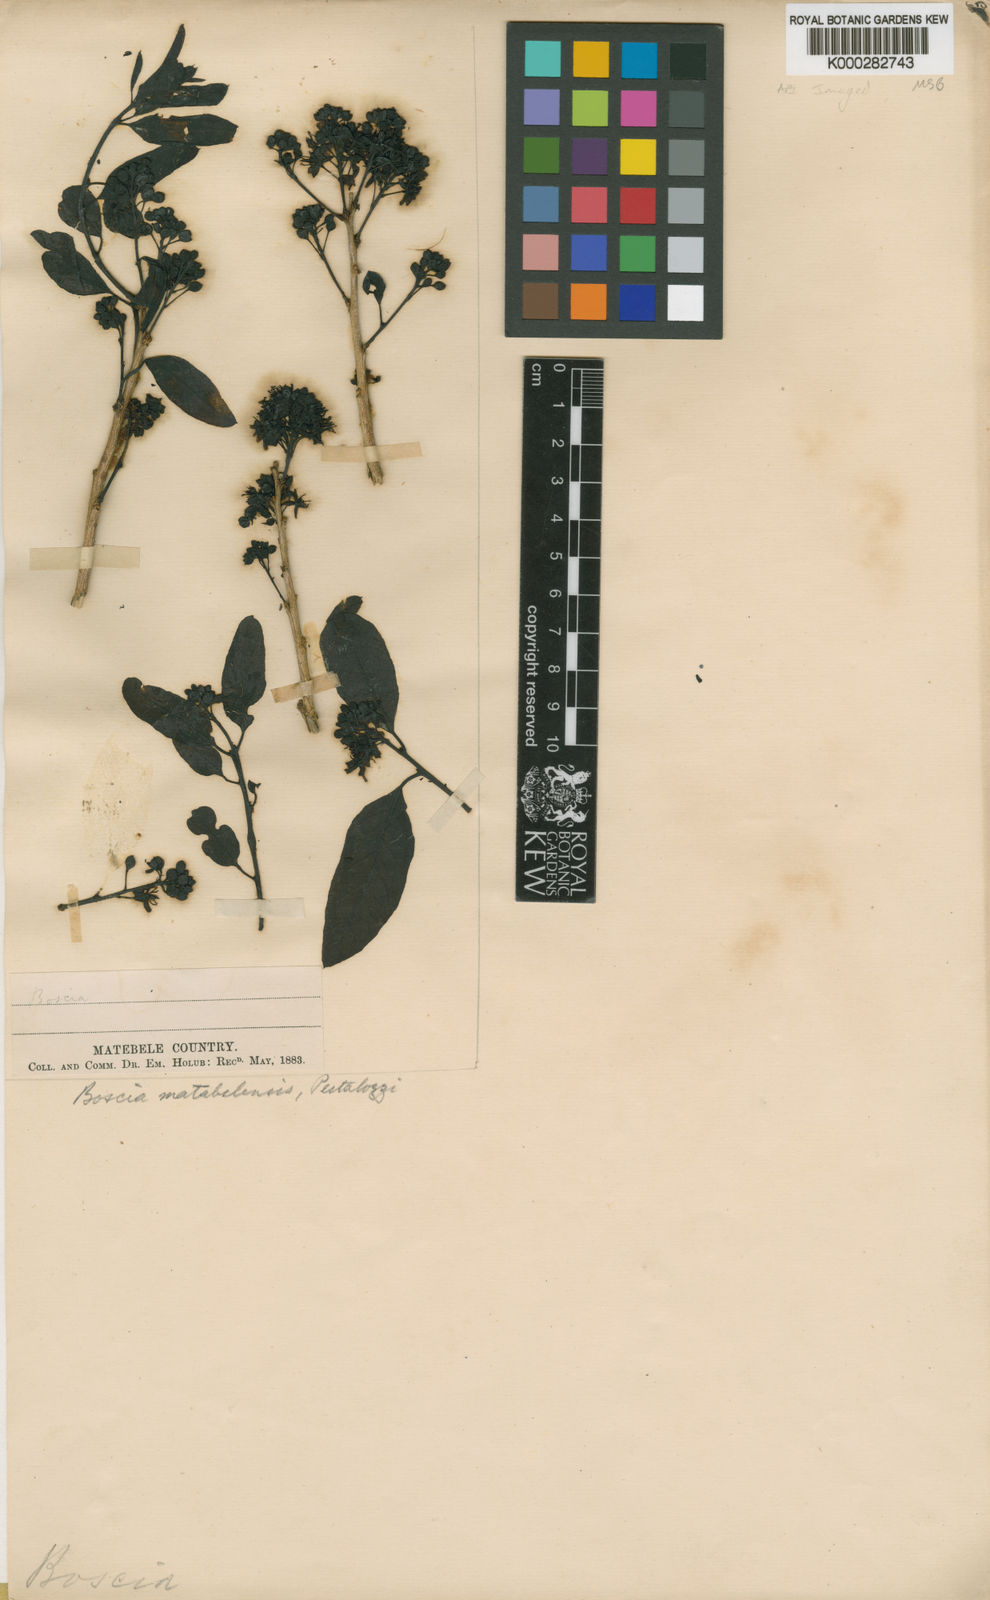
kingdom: Plantae
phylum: Tracheophyta
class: Magnoliopsida
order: Brassicales
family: Capparaceae
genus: Boscia
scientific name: Boscia matabelensis
